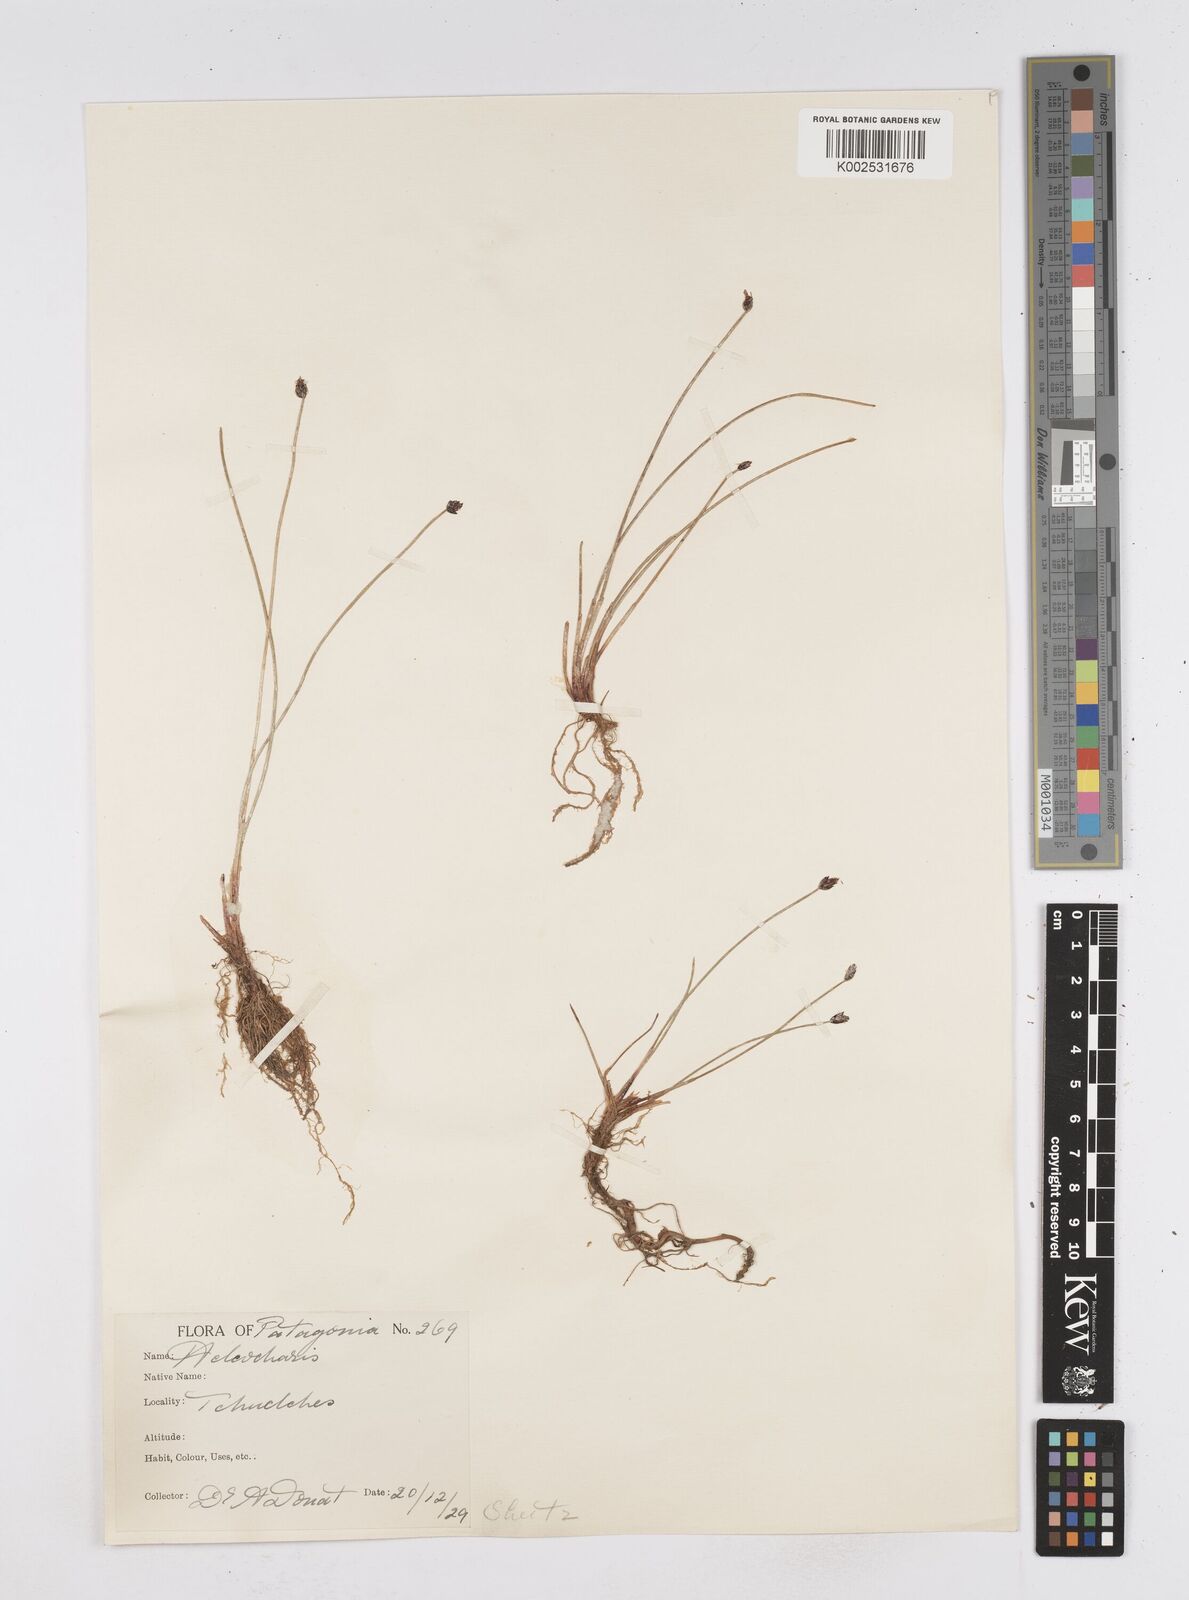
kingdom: Plantae
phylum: Tracheophyta
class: Liliopsida
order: Poales
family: Cyperaceae
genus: Eleocharis
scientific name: Eleocharis
